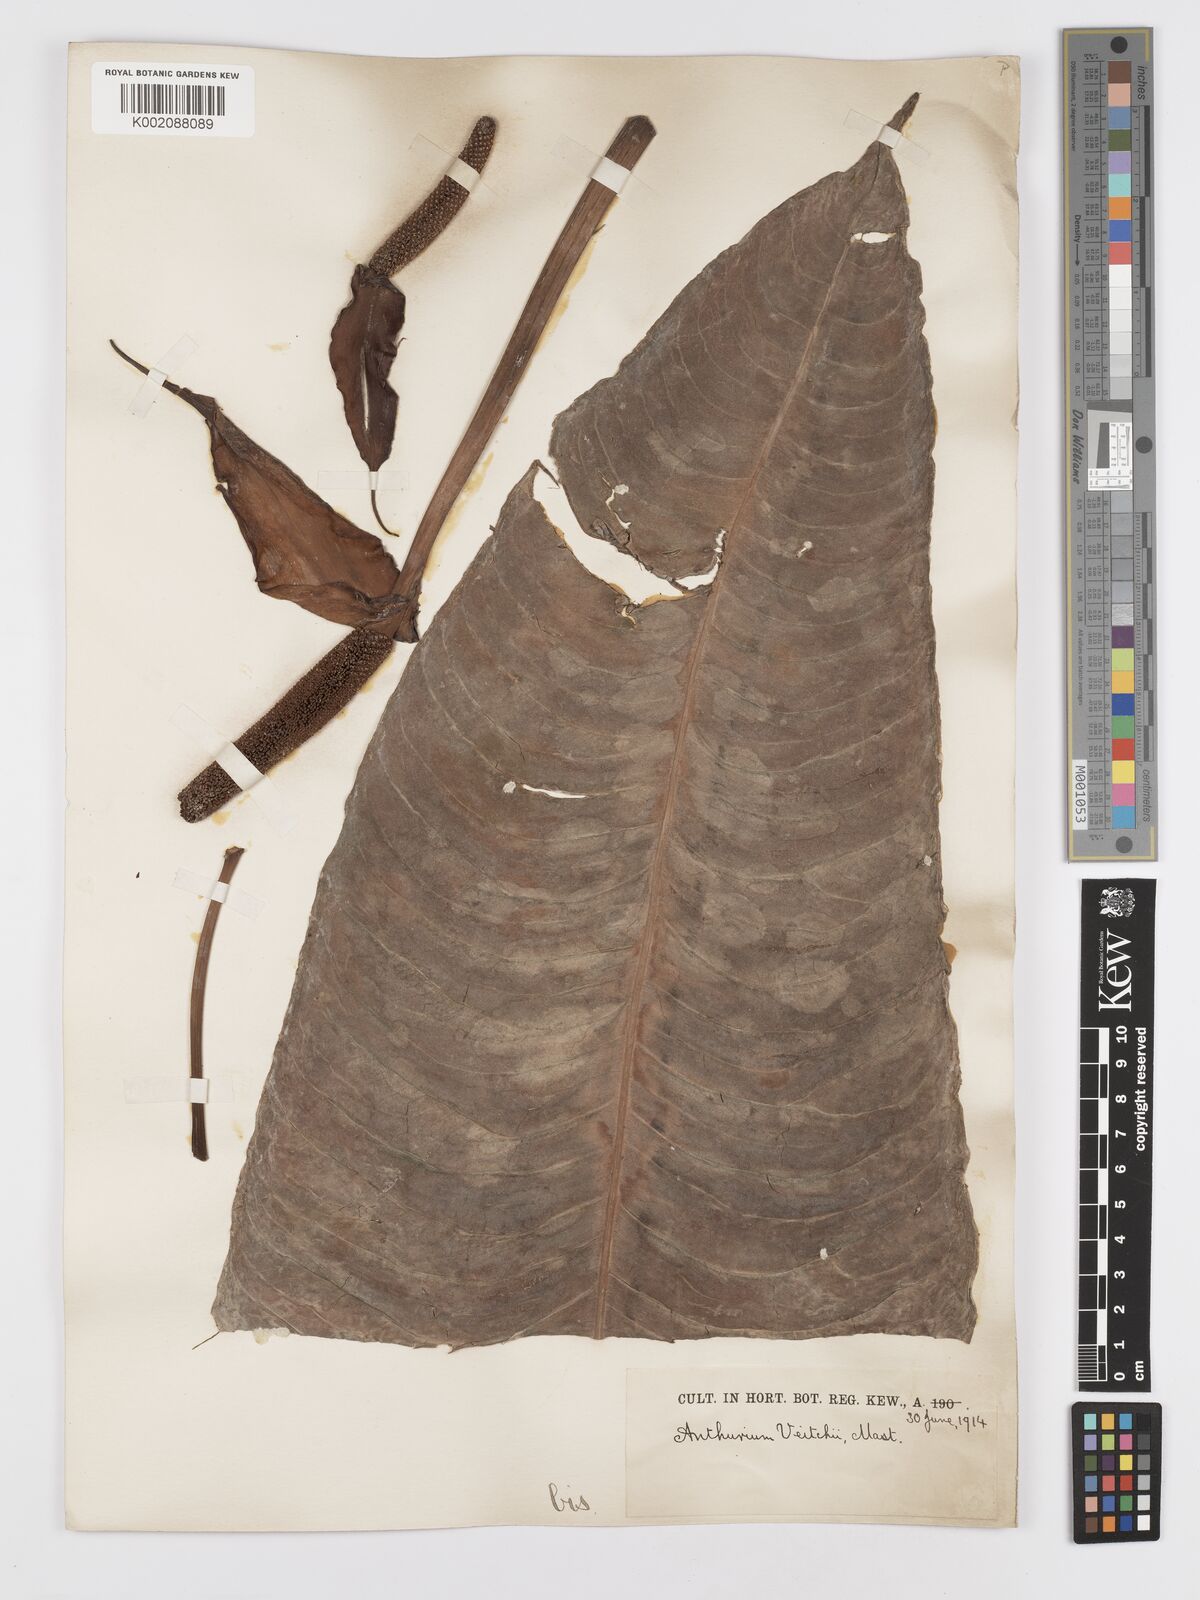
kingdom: Plantae
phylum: Tracheophyta
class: Liliopsida
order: Alismatales
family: Araceae
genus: Anthurium
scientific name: Anthurium veitchii
